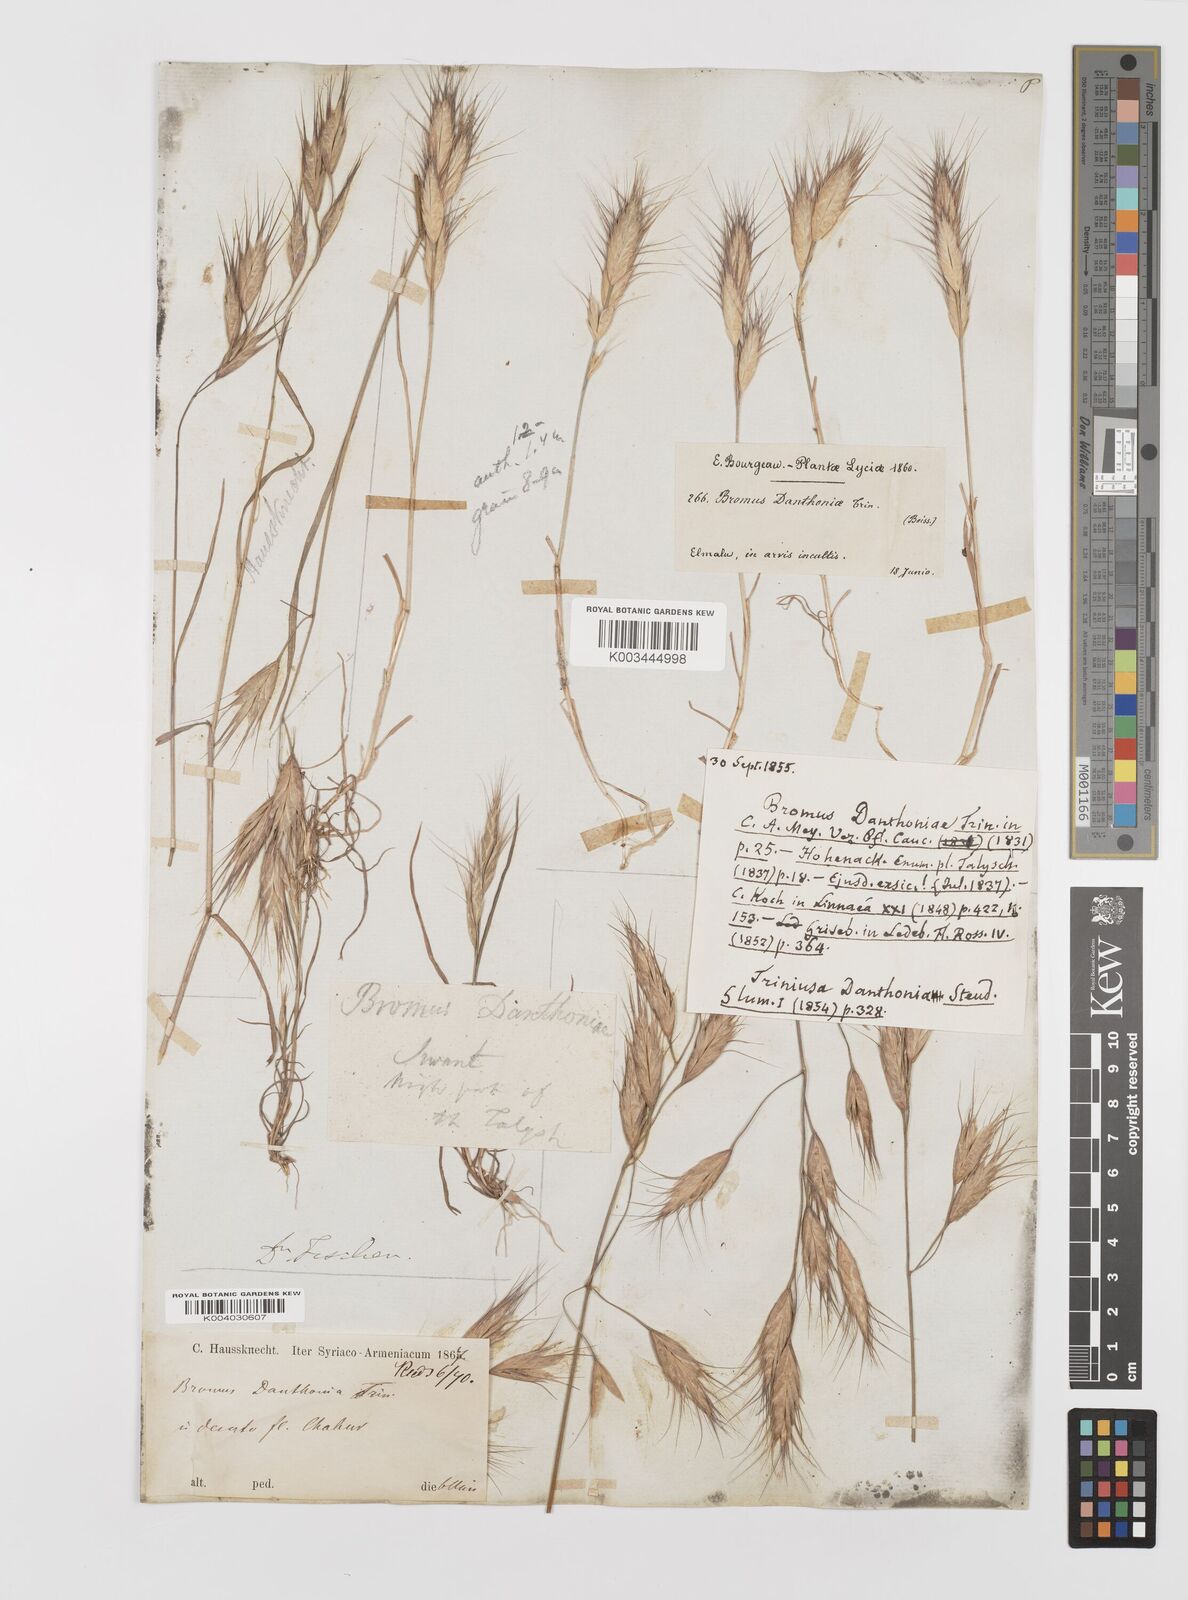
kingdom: Plantae
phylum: Tracheophyta
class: Liliopsida
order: Poales
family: Poaceae
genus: Bromus
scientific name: Bromus danthoniae
